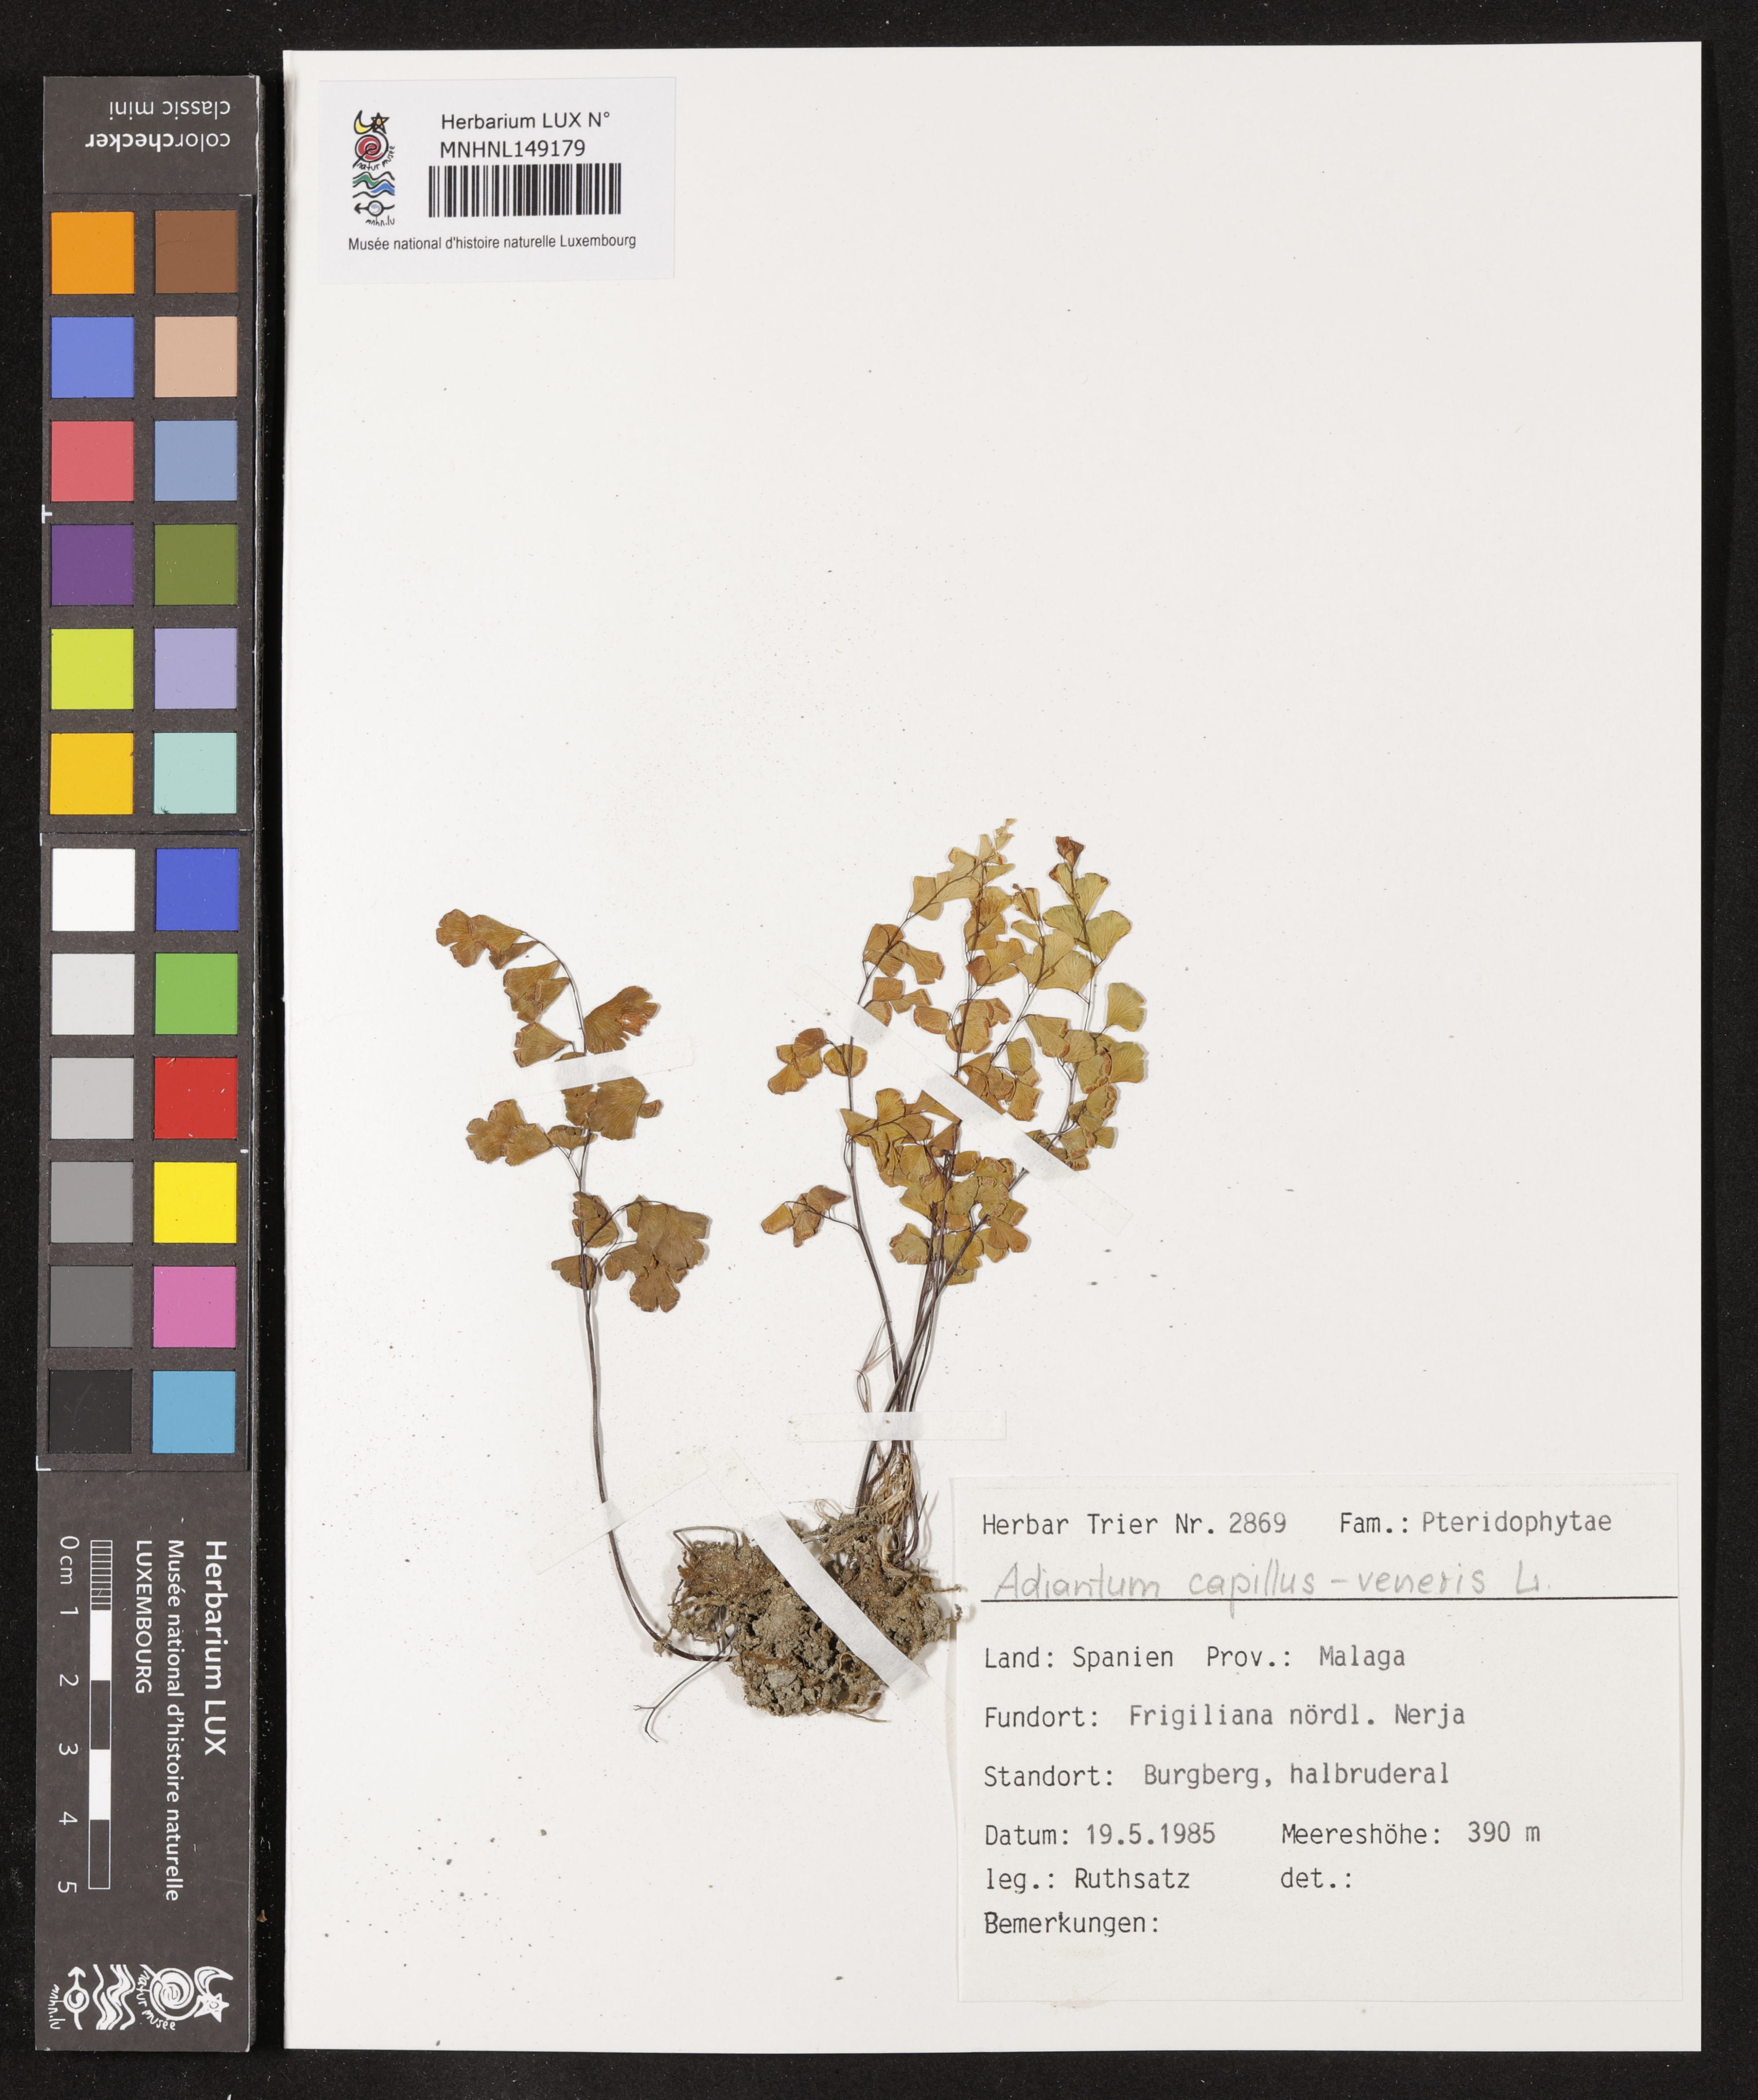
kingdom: Plantae
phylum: Tracheophyta
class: Polypodiopsida
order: Polypodiales
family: Pteridaceae
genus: Adiantum
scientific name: Adiantum capillus-veneris
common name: Maidenhair fern
